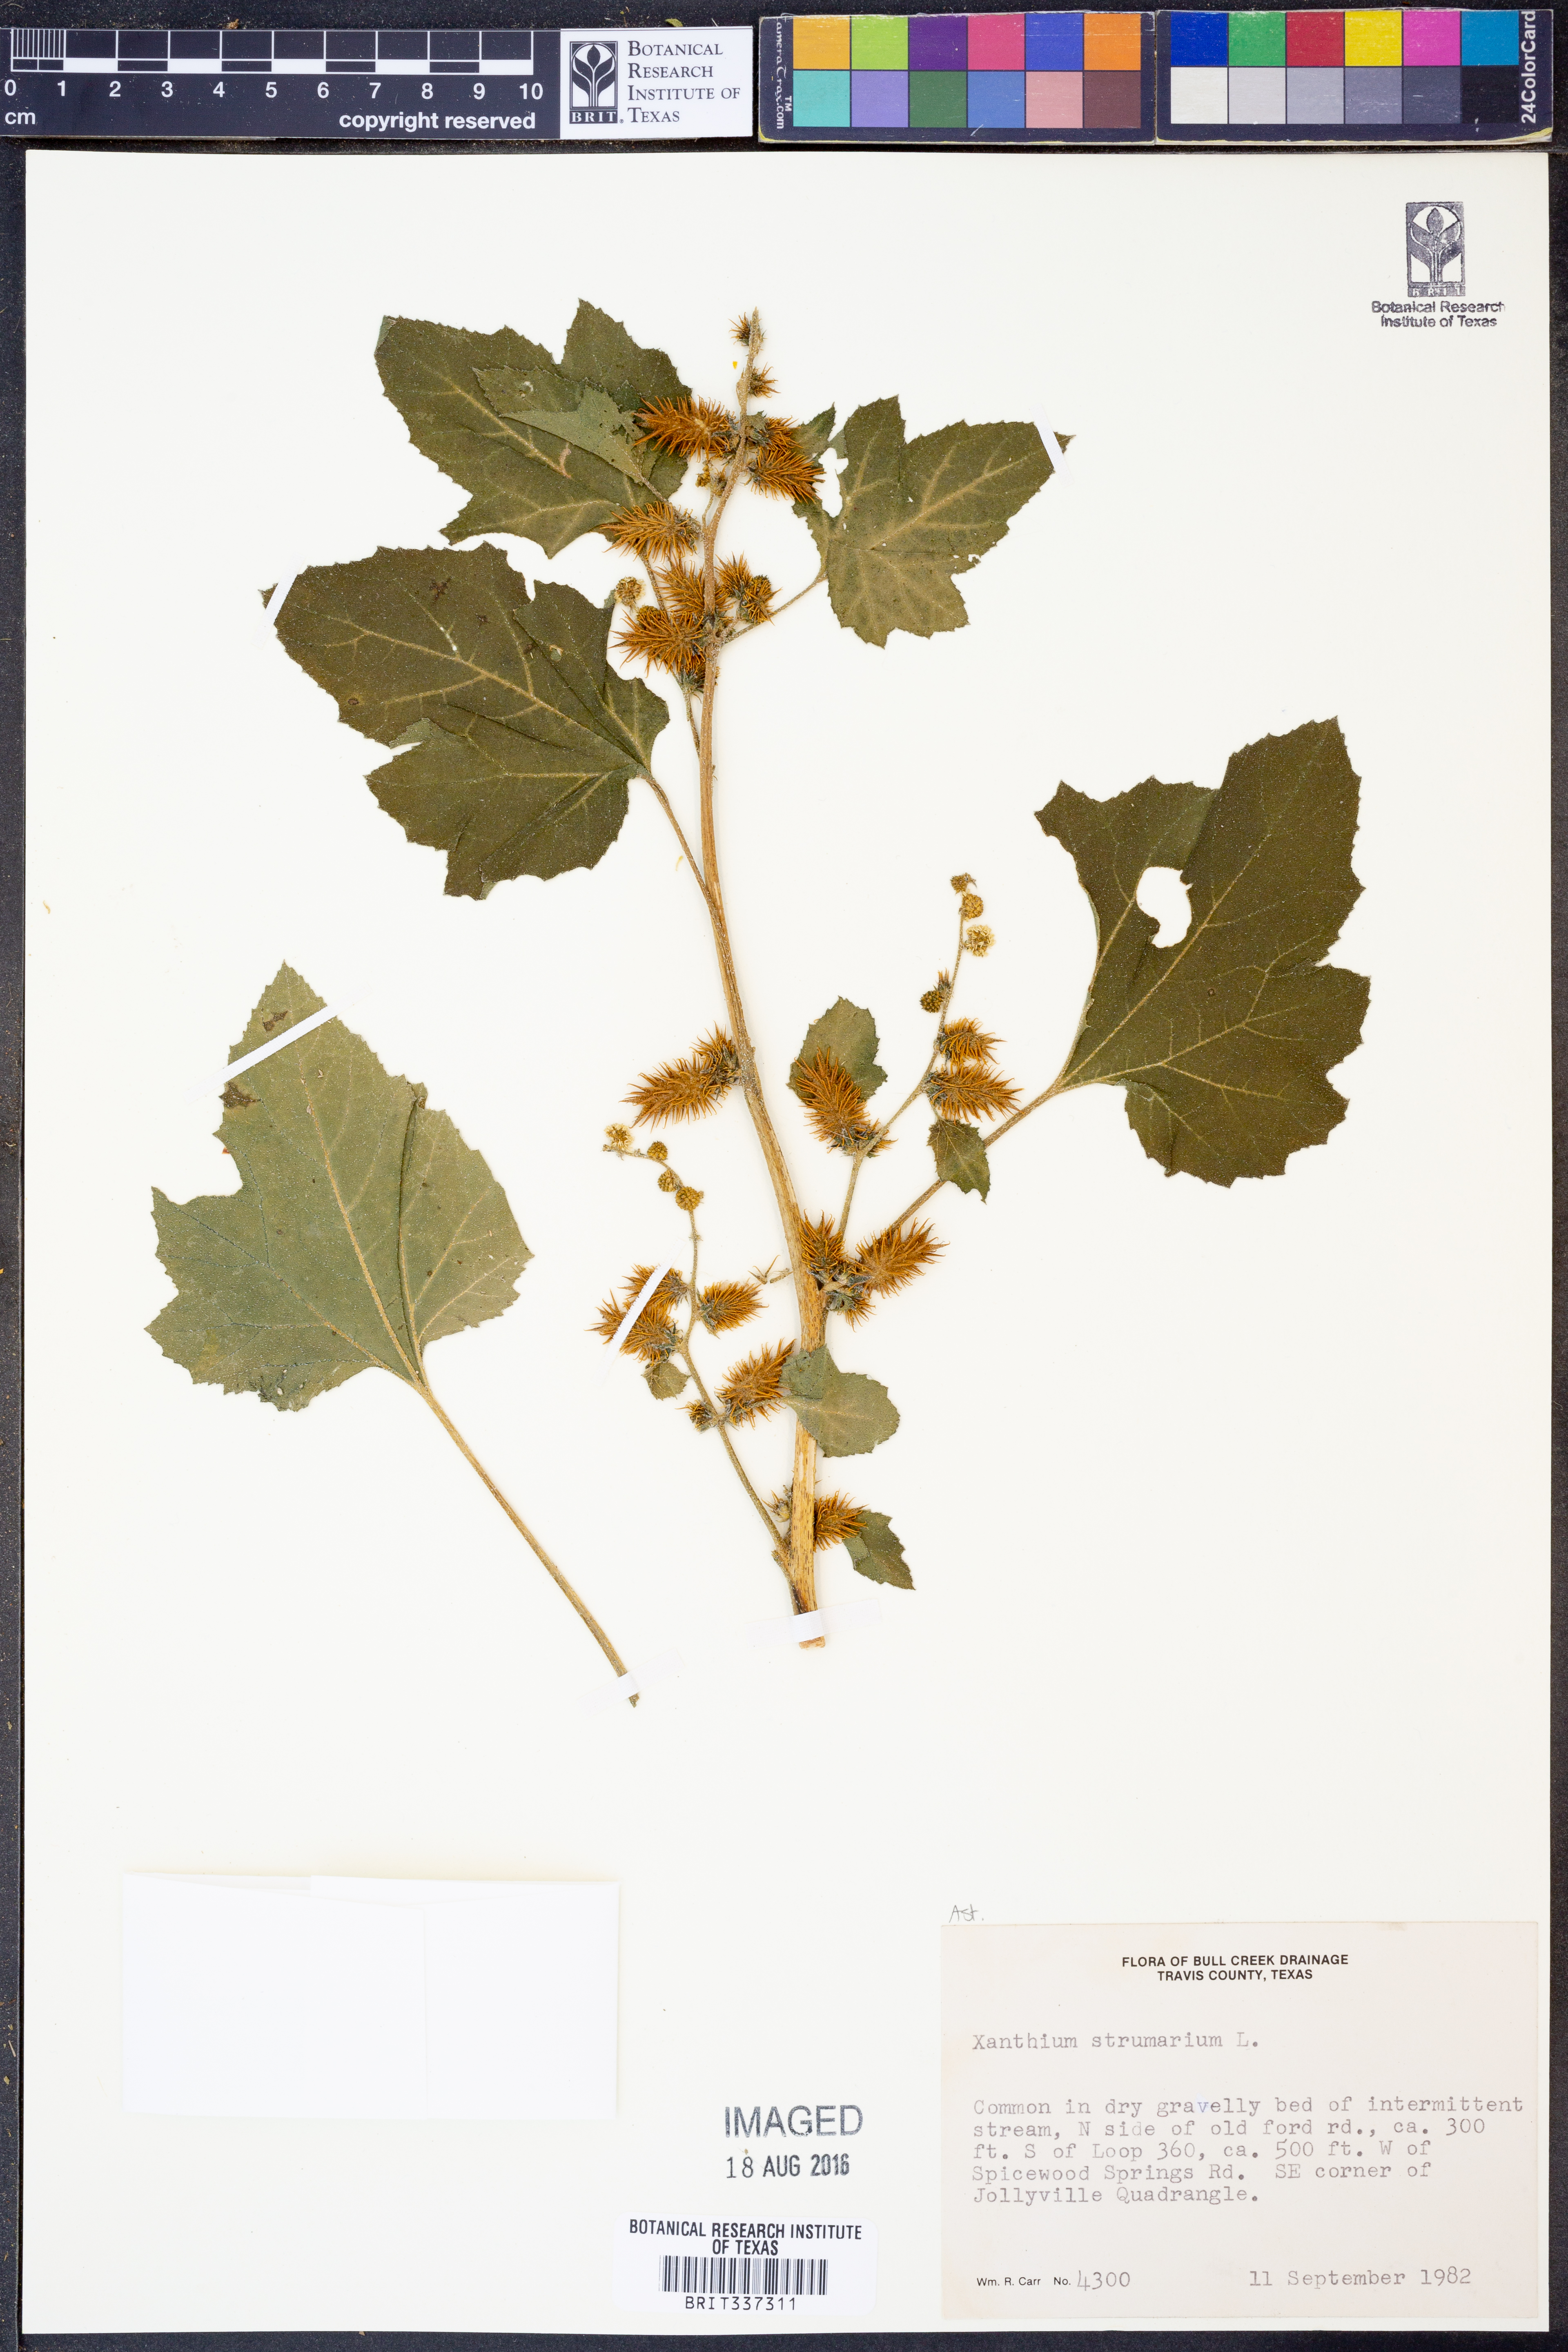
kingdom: Plantae
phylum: Tracheophyta
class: Magnoliopsida
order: Asterales
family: Asteraceae
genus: Xanthium
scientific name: Xanthium strumarium
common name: Rough cocklebur
